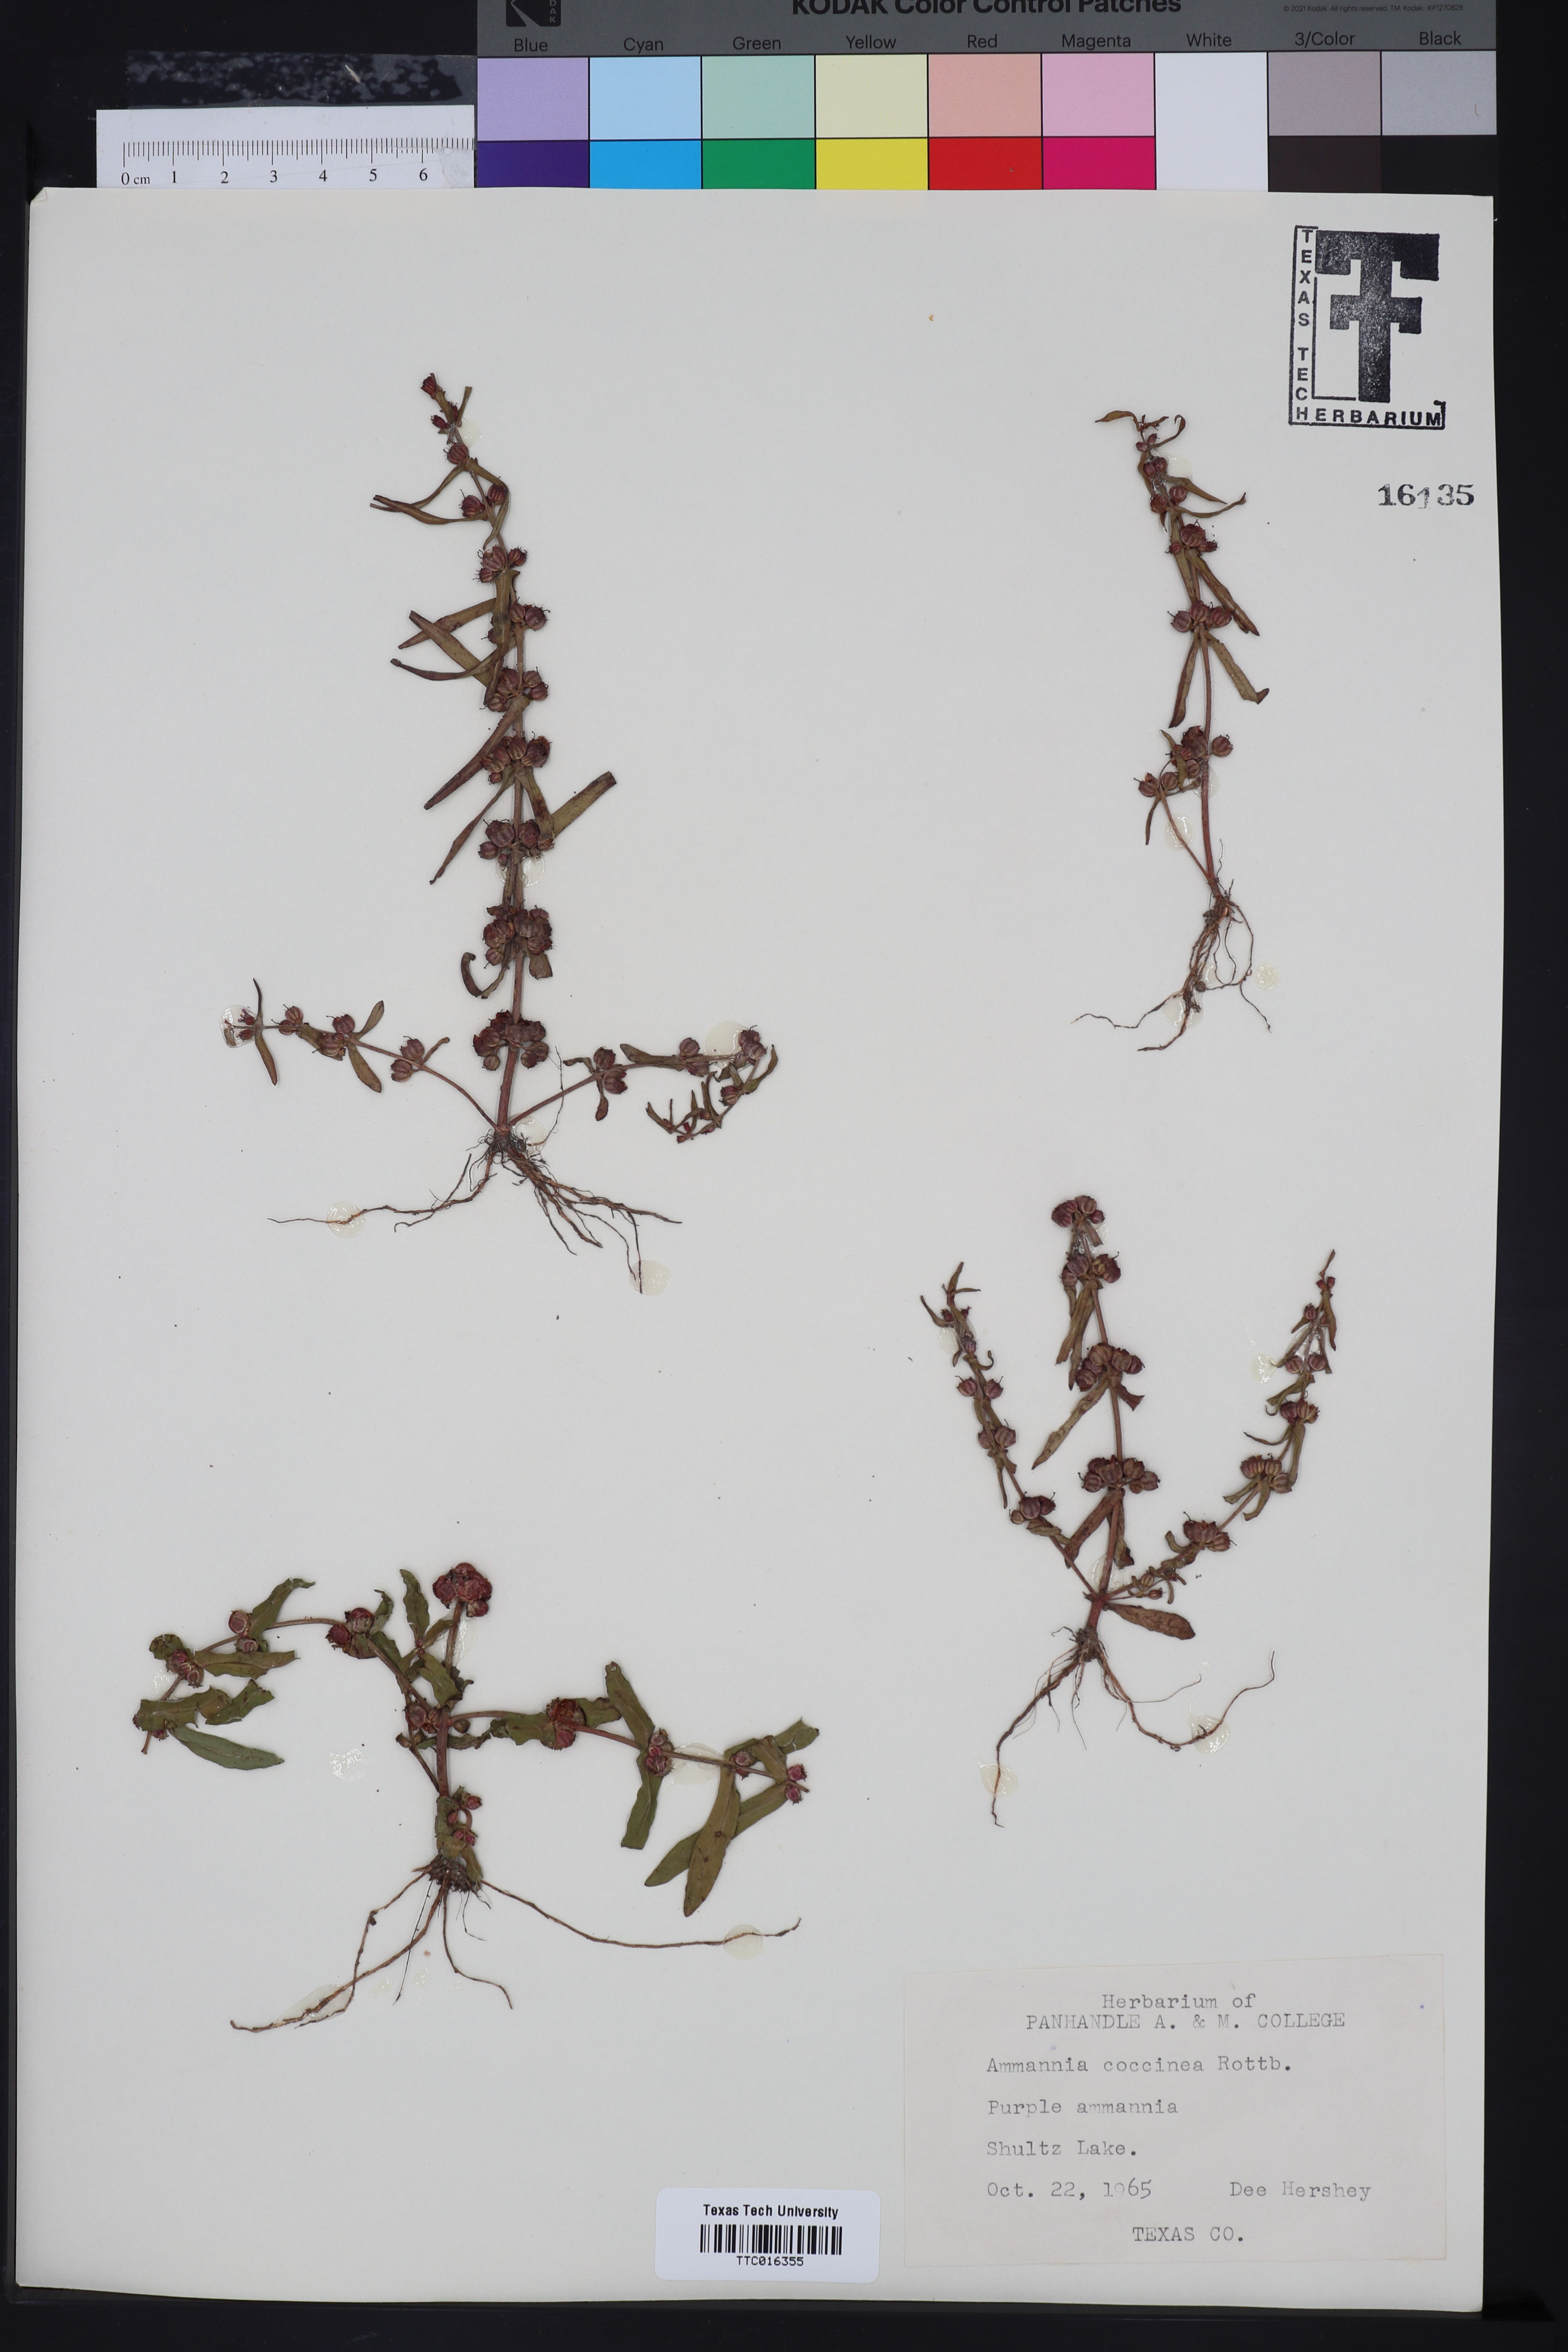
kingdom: Plantae
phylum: Tracheophyta
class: Magnoliopsida
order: Myrtales
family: Lythraceae
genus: Ammannia
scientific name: Ammannia coccinea
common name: Valley redstem
